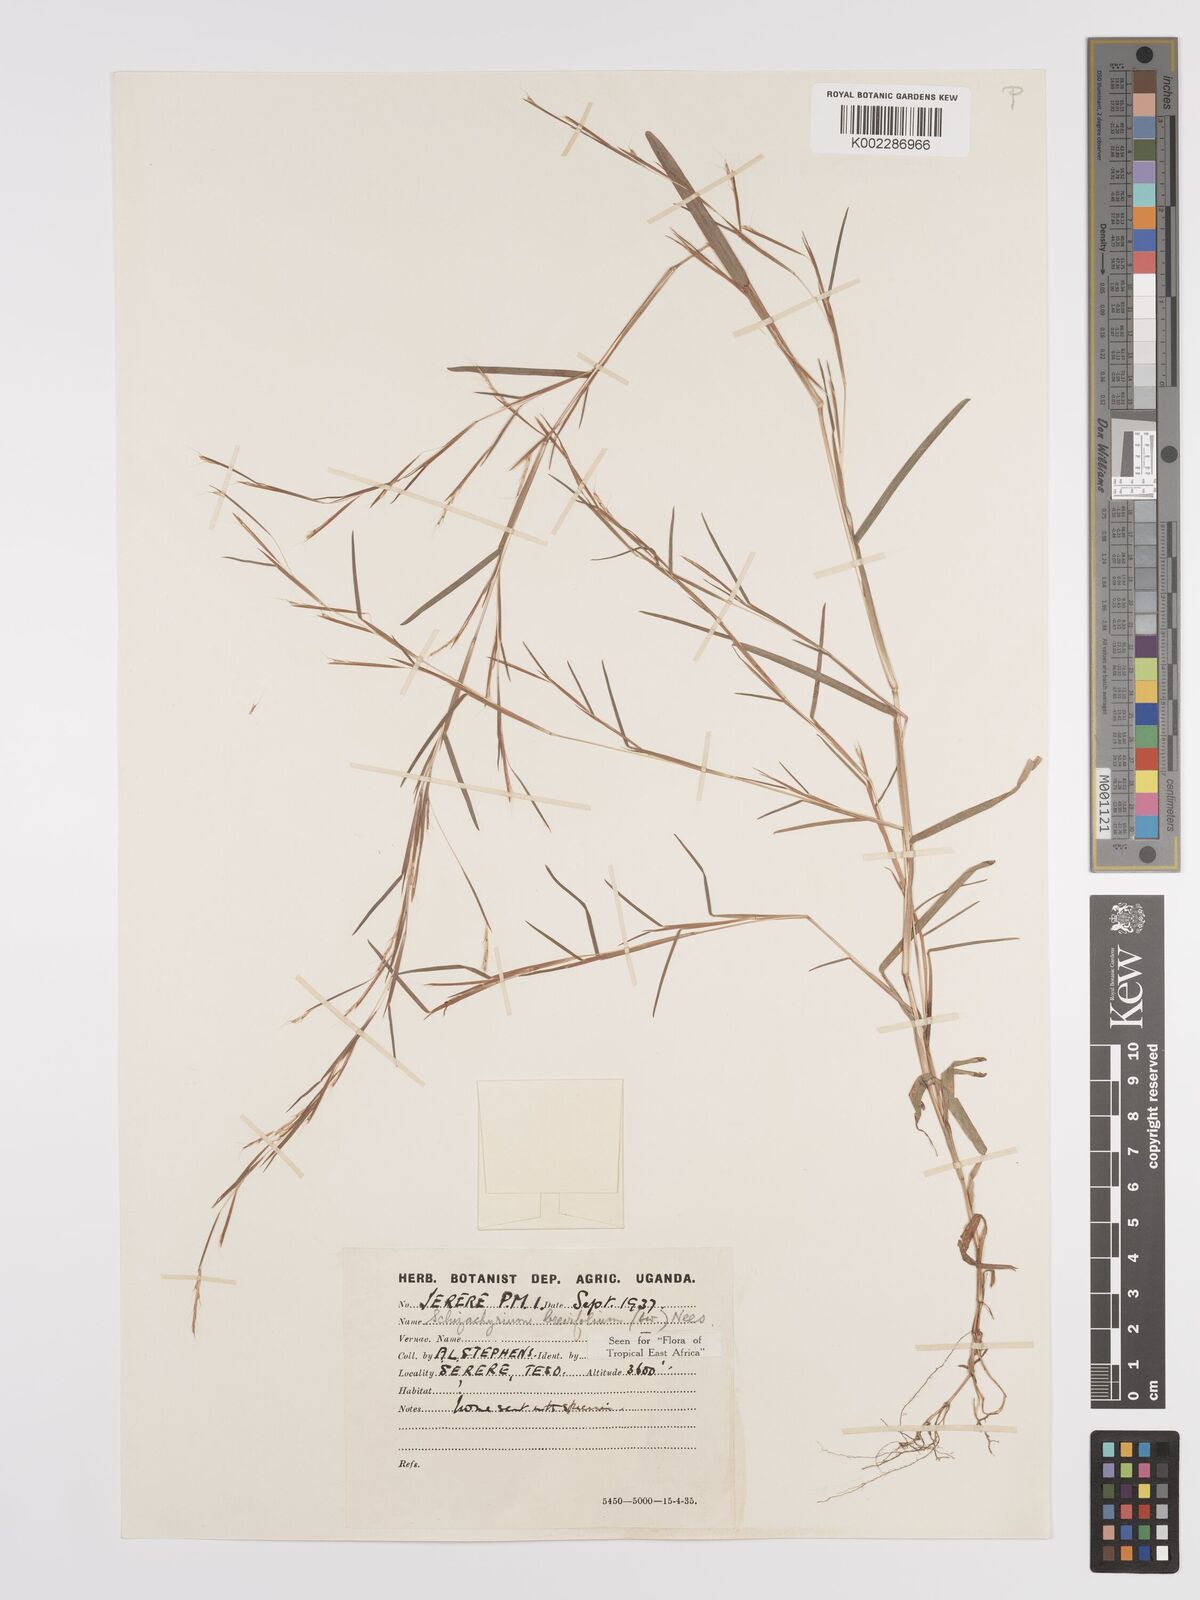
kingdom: Plantae
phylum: Tracheophyta
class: Liliopsida
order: Poales
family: Poaceae
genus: Schizachyrium
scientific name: Schizachyrium brevifolium
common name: Serillo dulce
